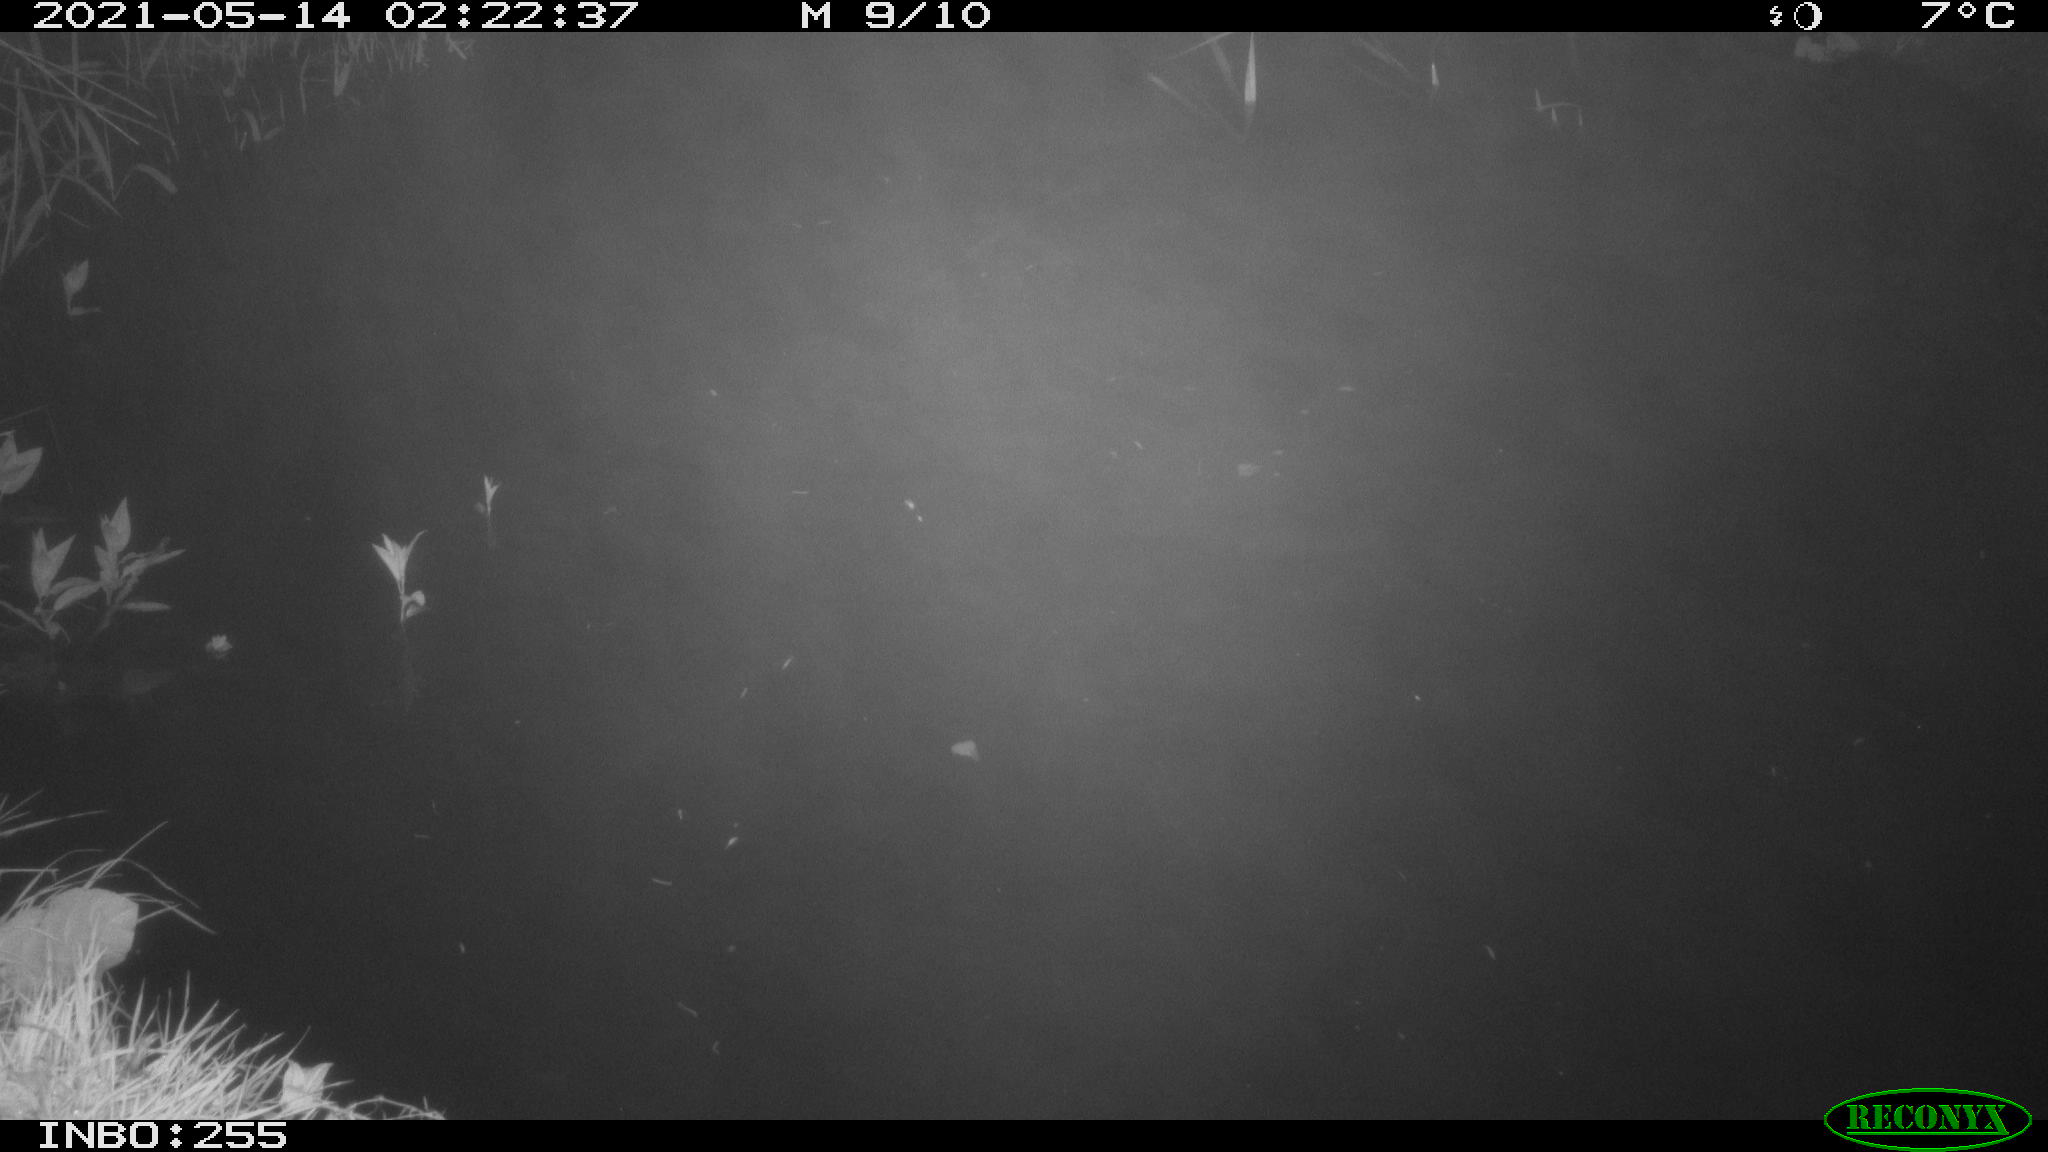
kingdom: Animalia
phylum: Chordata
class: Mammalia
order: Rodentia
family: Muridae
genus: Rattus
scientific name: Rattus norvegicus
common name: Brown rat
